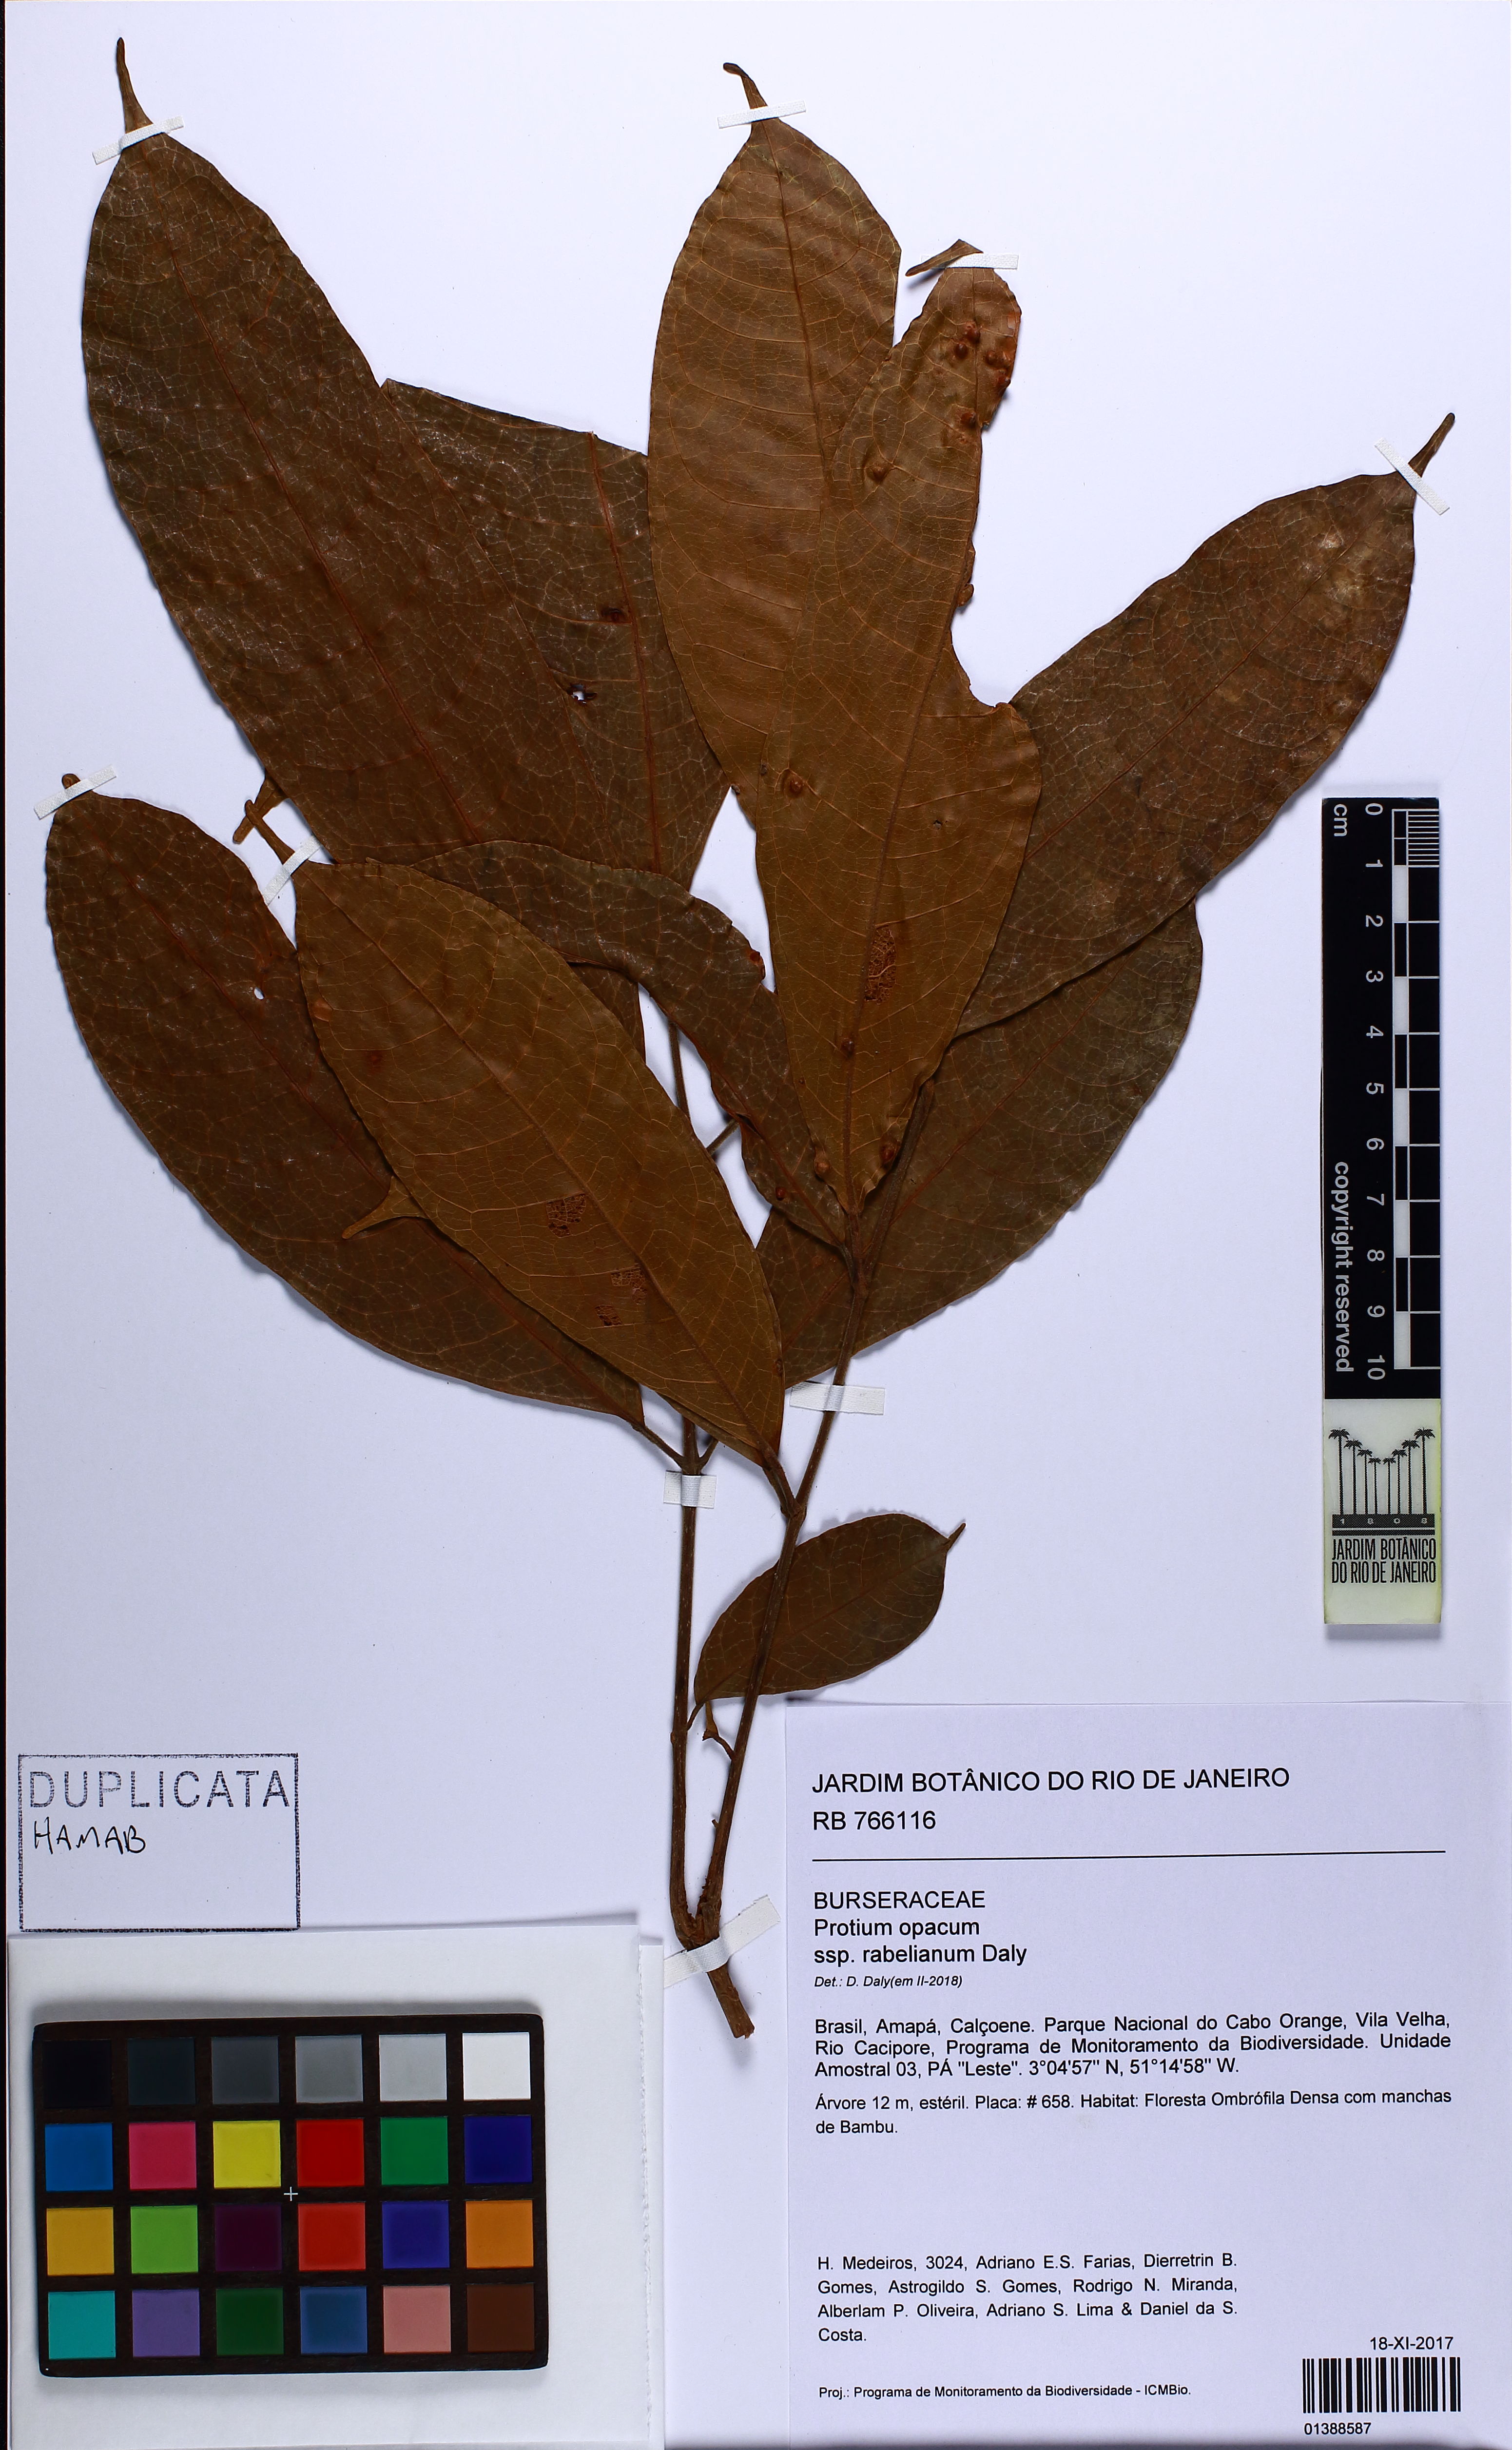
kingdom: Plantae
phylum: Tracheophyta
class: Magnoliopsida
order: Sapindales
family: Burseraceae
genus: Protium
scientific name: Protium opacum
